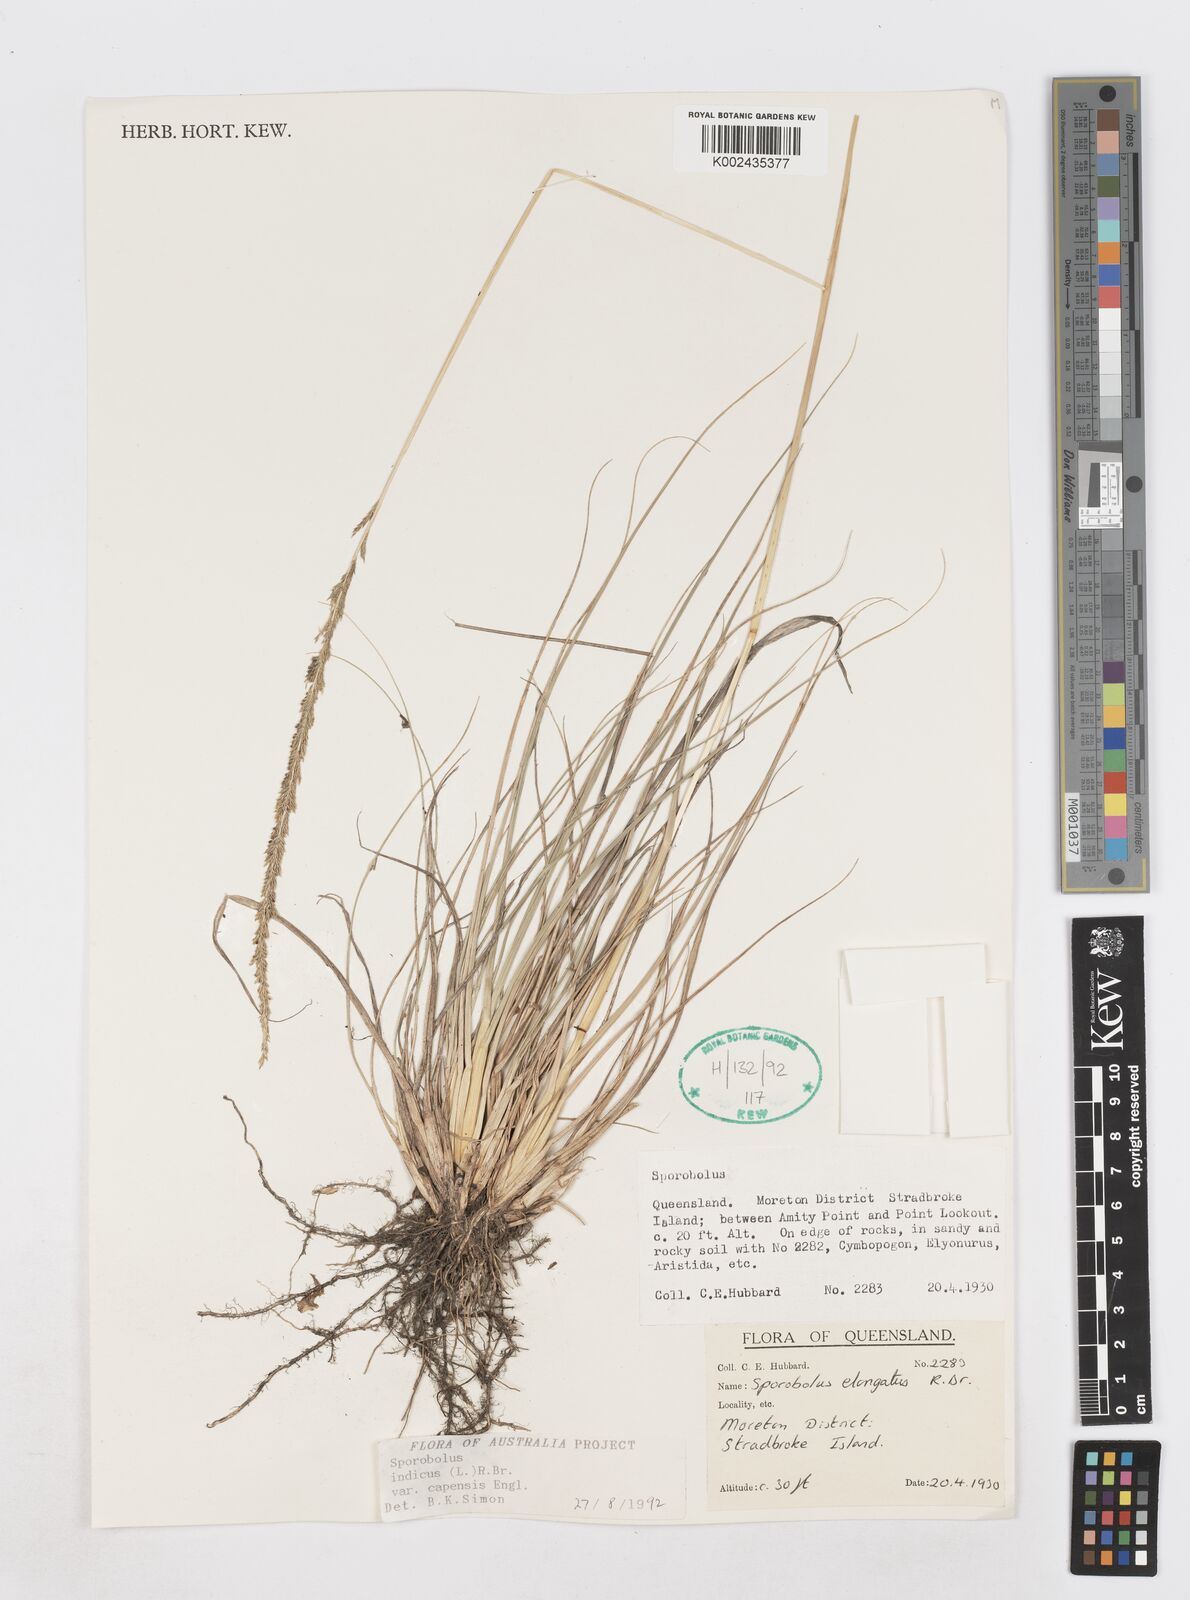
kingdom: Plantae
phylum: Tracheophyta
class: Liliopsida
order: Poales
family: Poaceae
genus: Sporobolus
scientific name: Sporobolus africanus
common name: African dropseed
